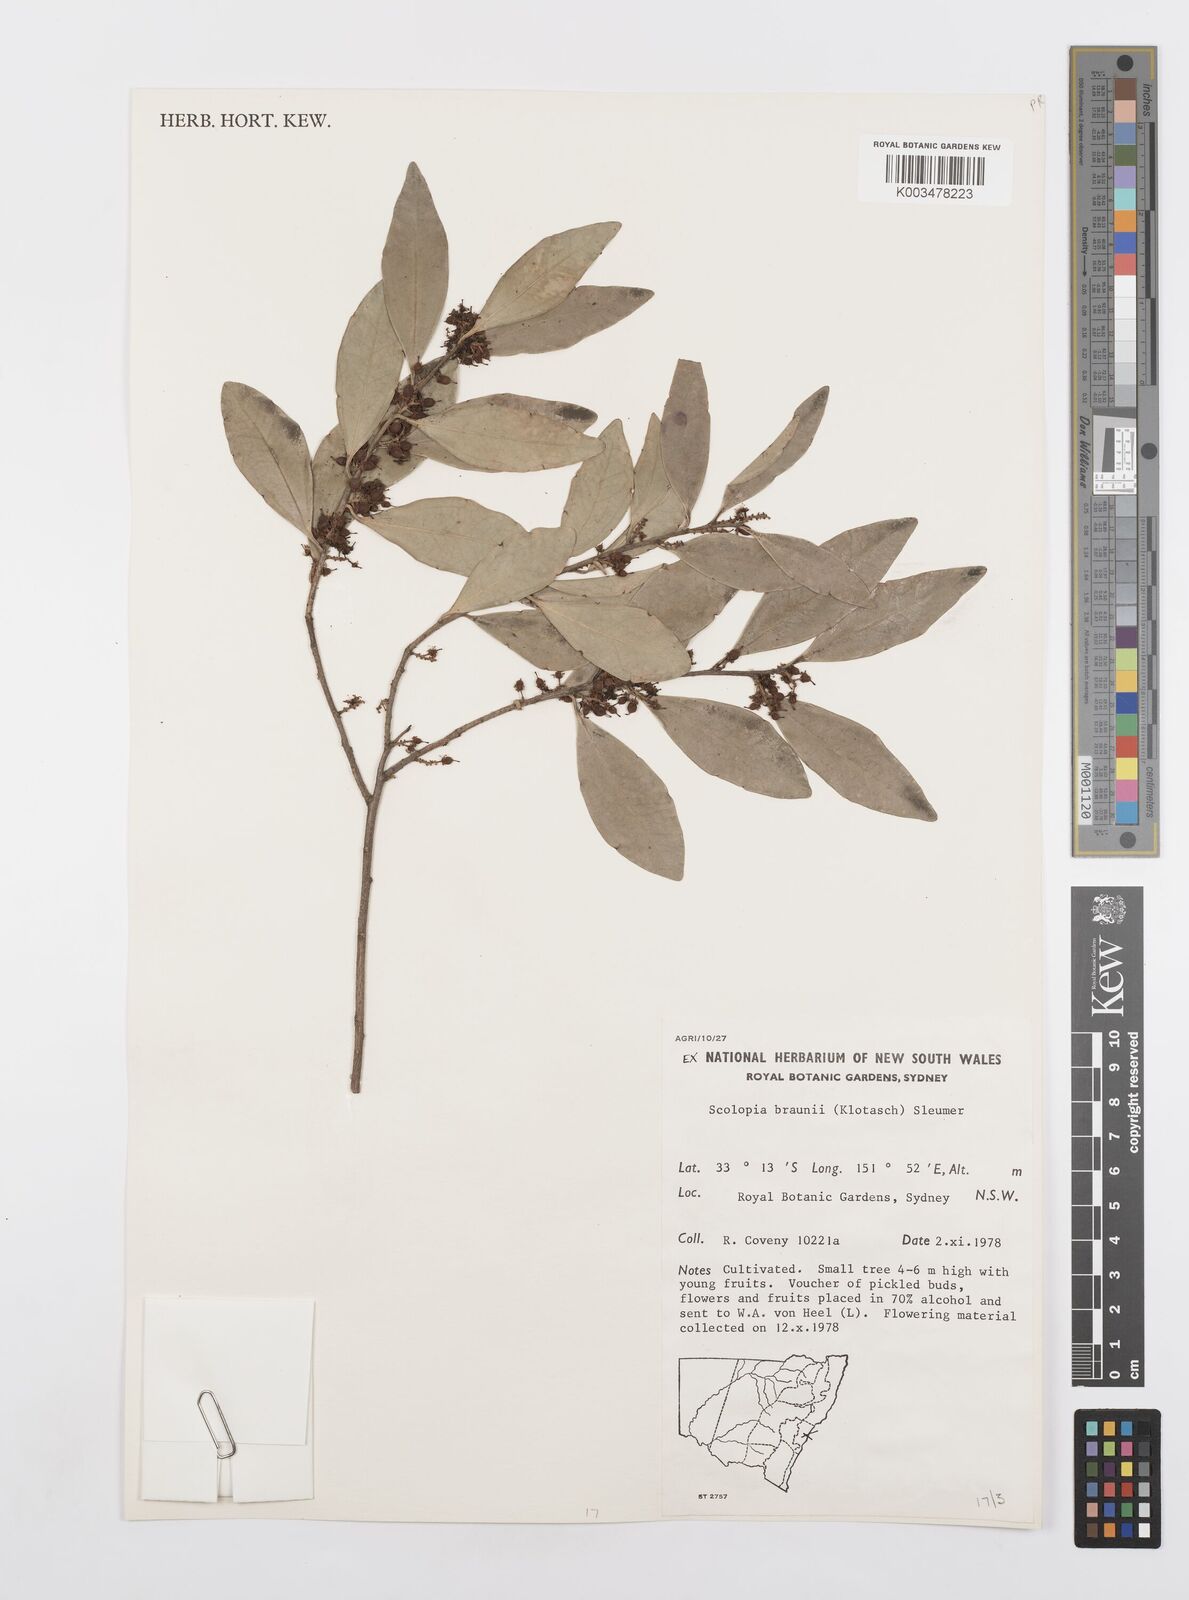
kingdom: Plantae
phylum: Tracheophyta
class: Magnoliopsida
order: Malpighiales
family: Salicaceae
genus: Scolopia
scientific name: Scolopia braunii
